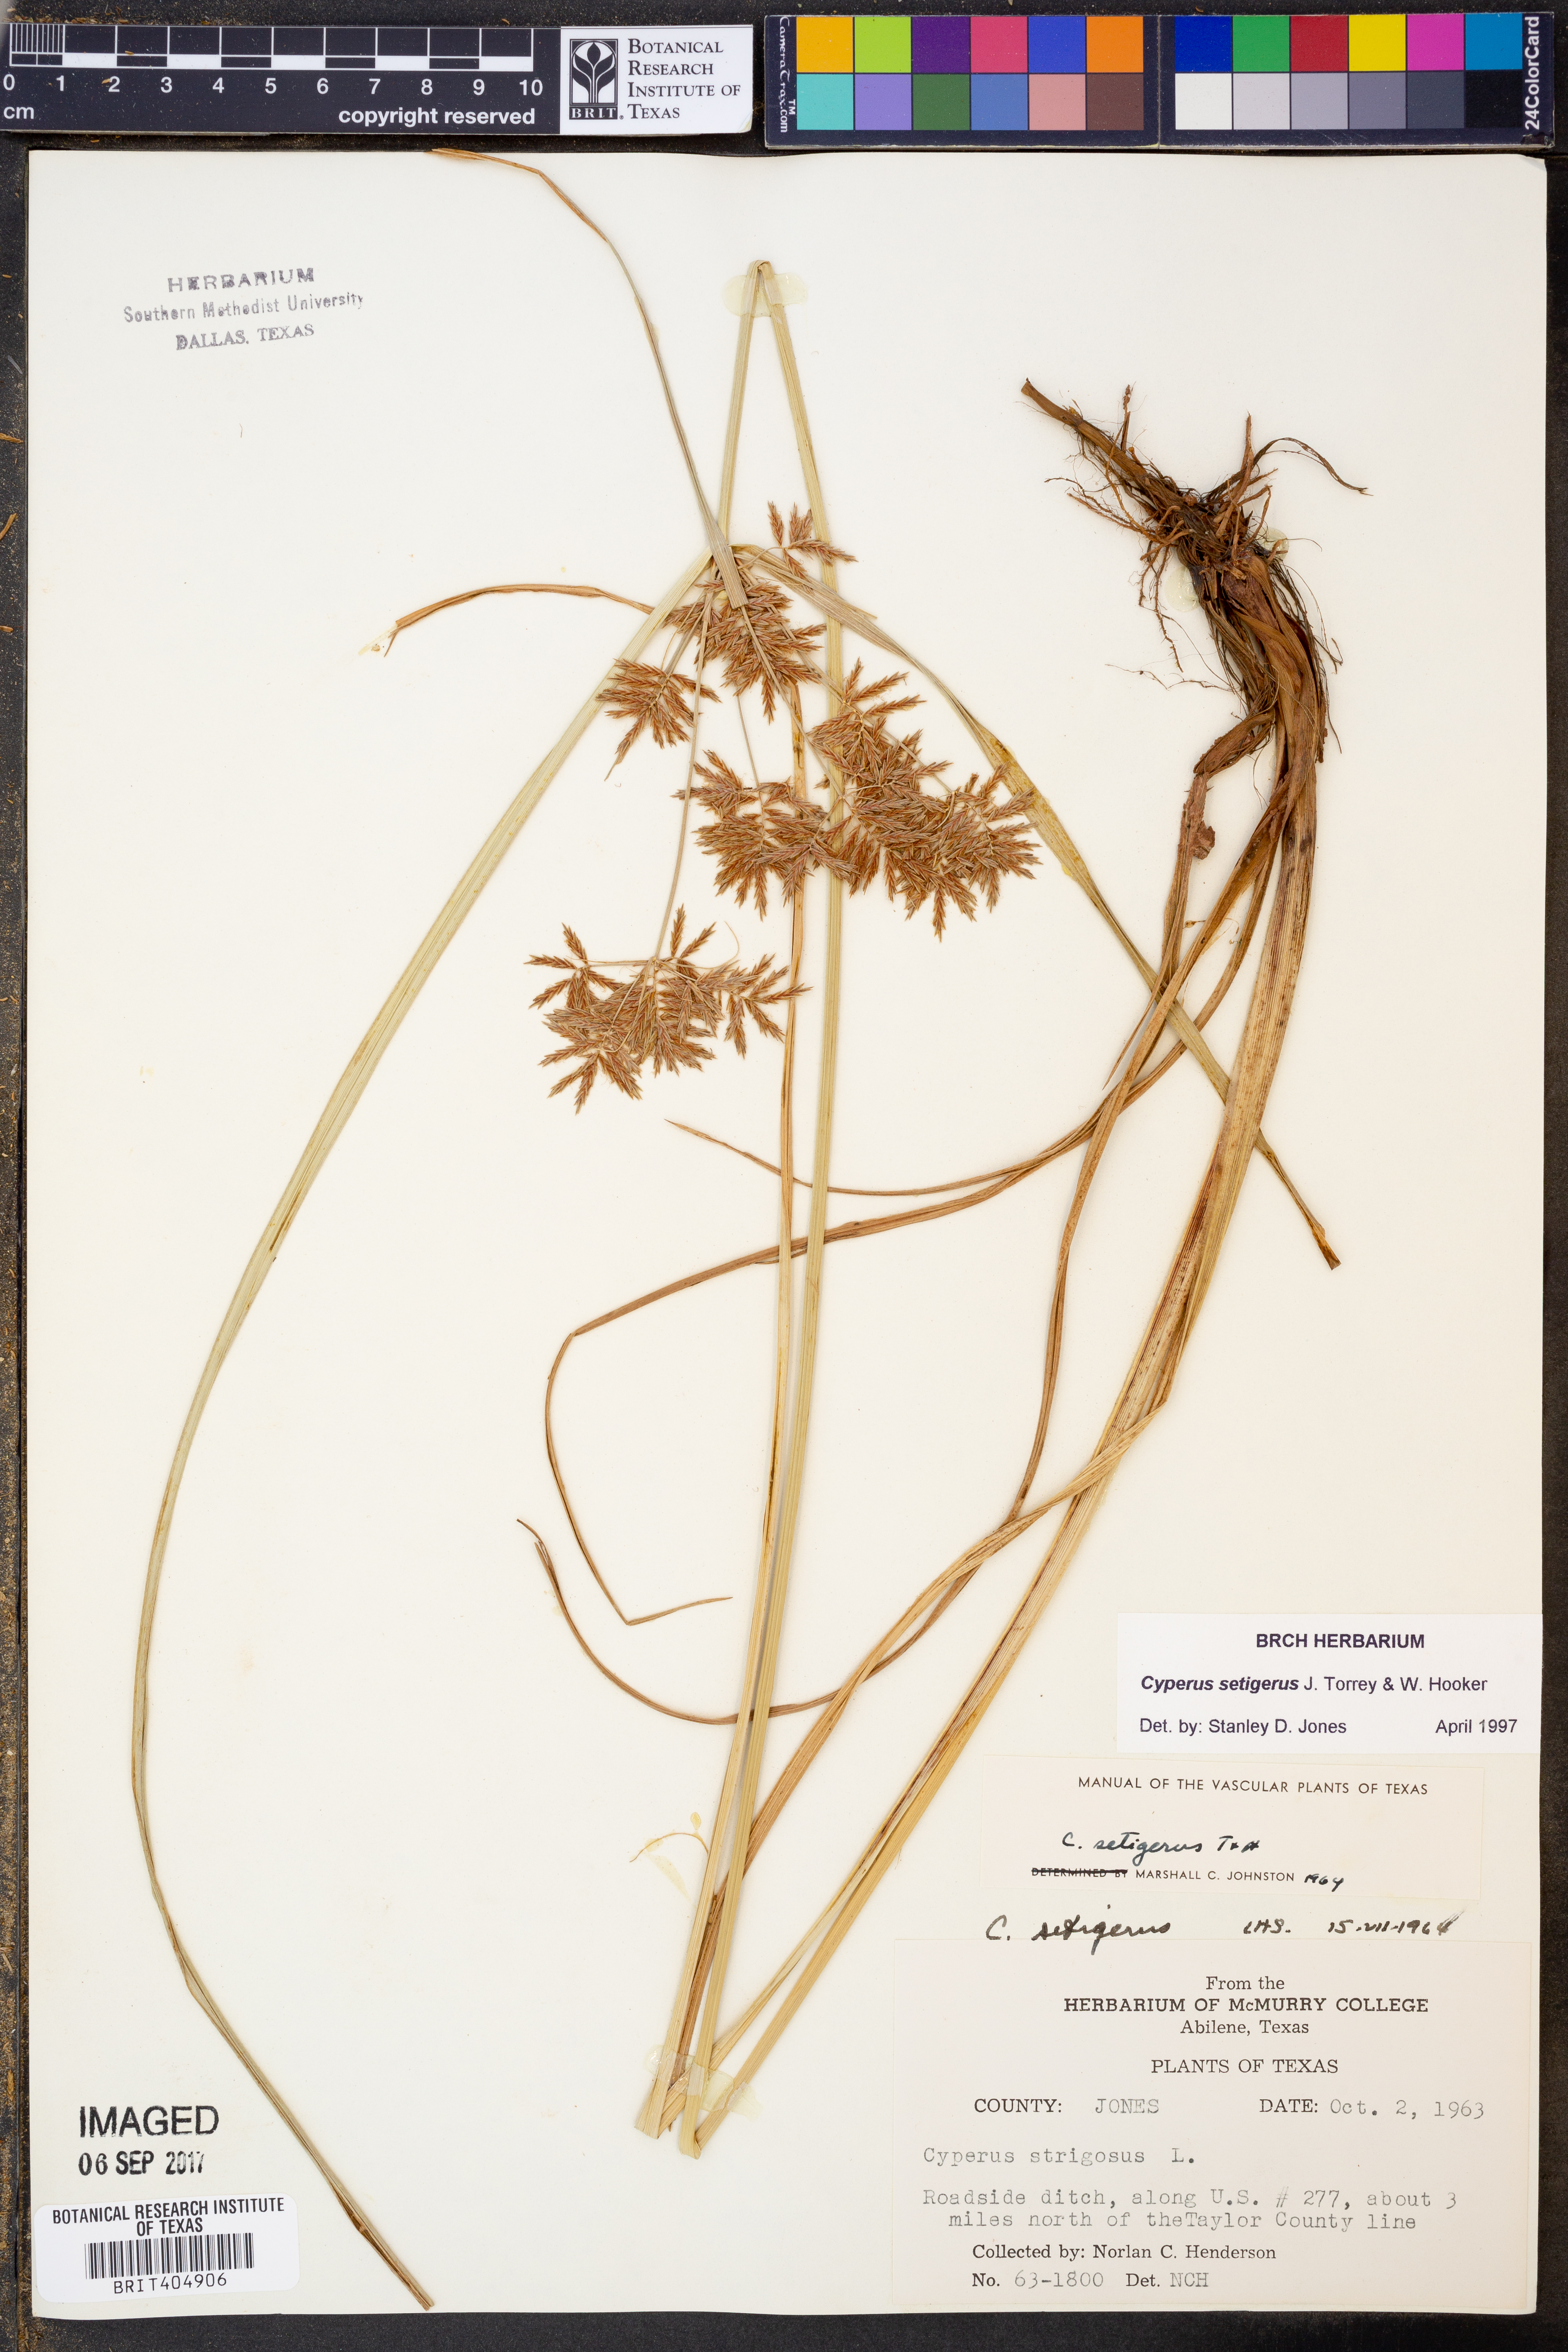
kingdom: Plantae
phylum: Tracheophyta
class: Liliopsida
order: Poales
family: Cyperaceae
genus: Cyperus
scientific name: Cyperus setigerus
